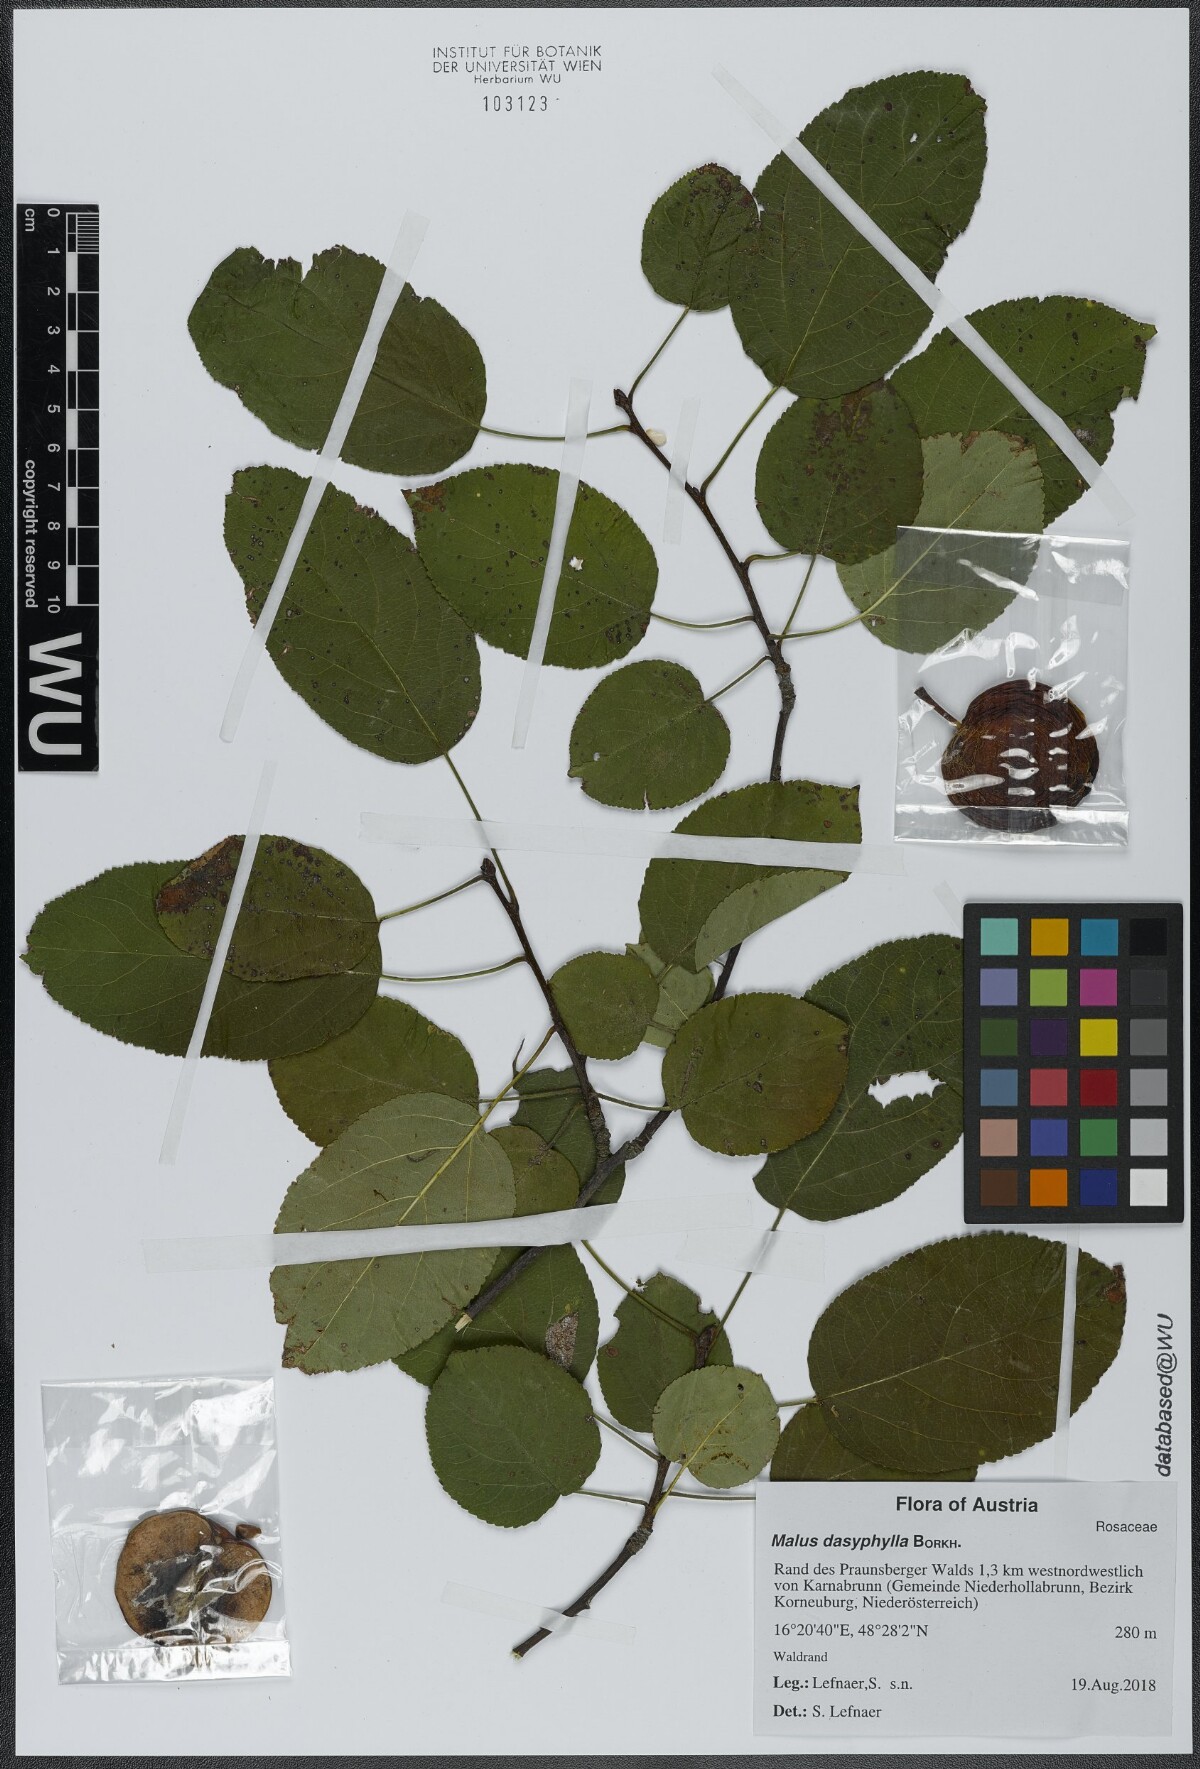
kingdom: Plantae
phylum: Tracheophyta
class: Magnoliopsida
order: Rosales
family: Rosaceae
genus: Malus
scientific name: Malus dasyphylla
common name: Paradise apple
